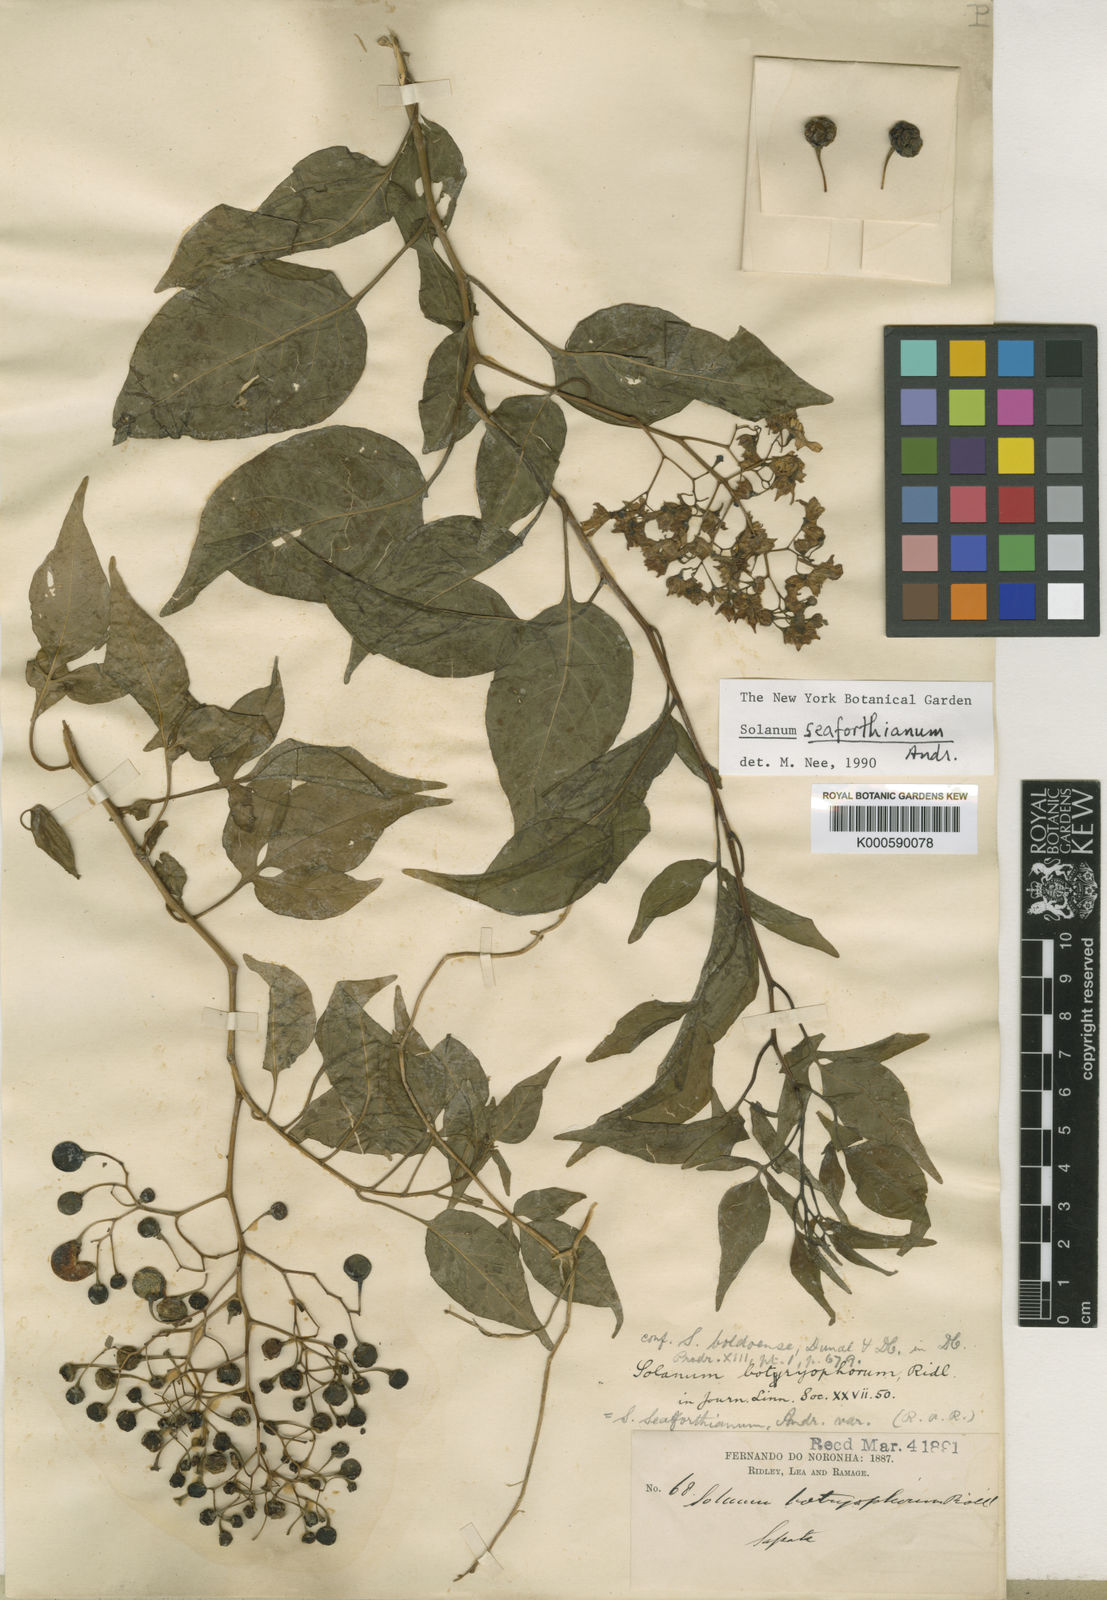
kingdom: Plantae
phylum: Tracheophyta
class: Magnoliopsida
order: Solanales
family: Solanaceae
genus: Solanum
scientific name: Solanum seaforthianum
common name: Brazilian nightshade
